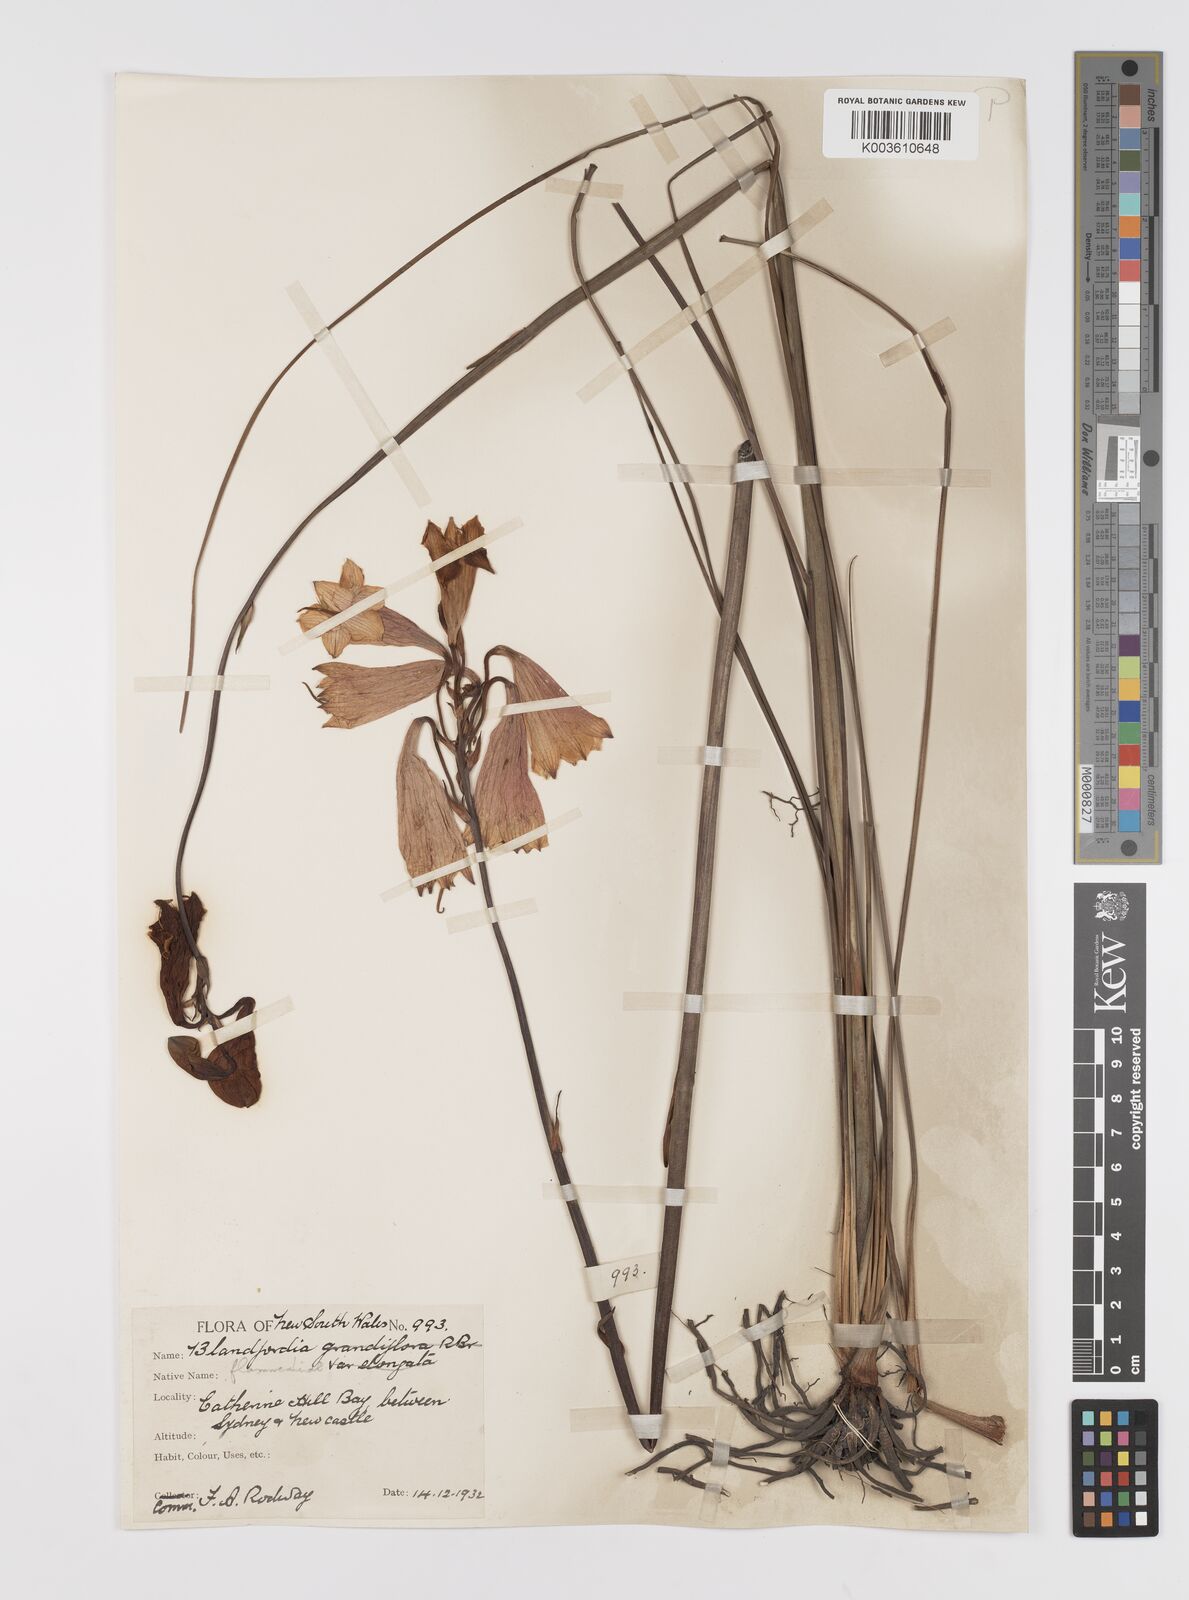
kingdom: Plantae
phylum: Tracheophyta
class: Liliopsida
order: Asparagales
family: Blandfordiaceae
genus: Blandfordia
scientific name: Blandfordia punicea
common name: Tasmanian christmas-bell
